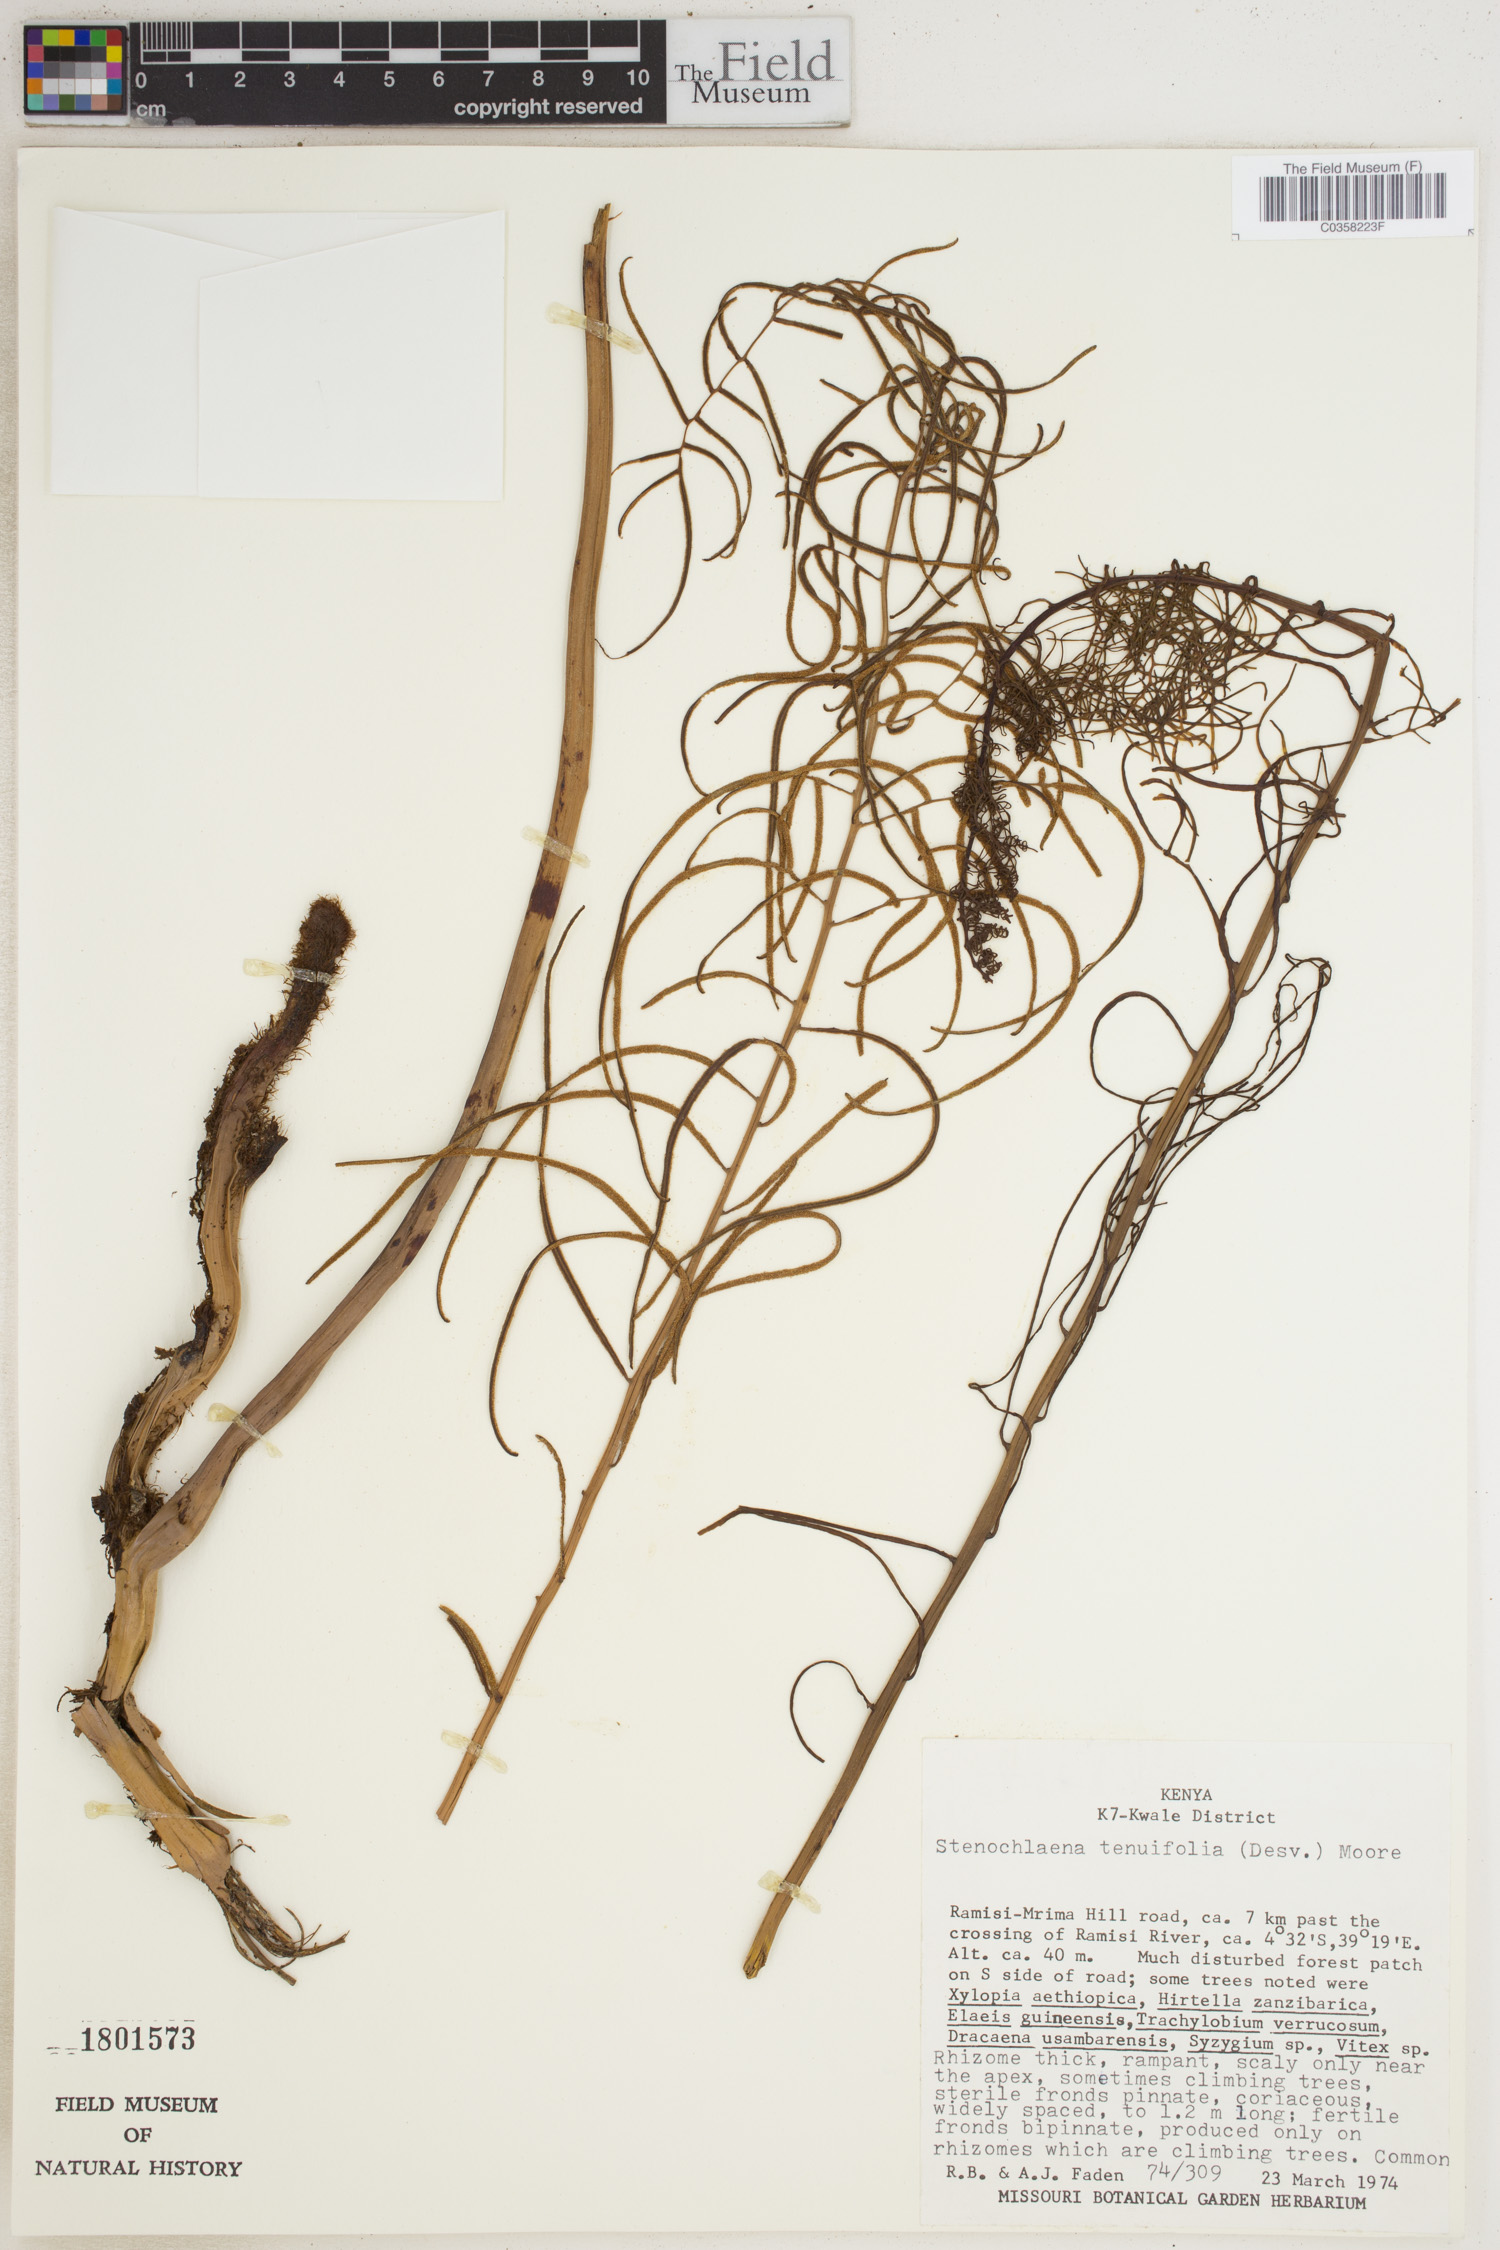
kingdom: Plantae
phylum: Tracheophyta
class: Polypodiopsida
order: Polypodiales
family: Blechnaceae
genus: Stenochlaena
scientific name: Stenochlaena tenuifolia
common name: Giant vine fern
